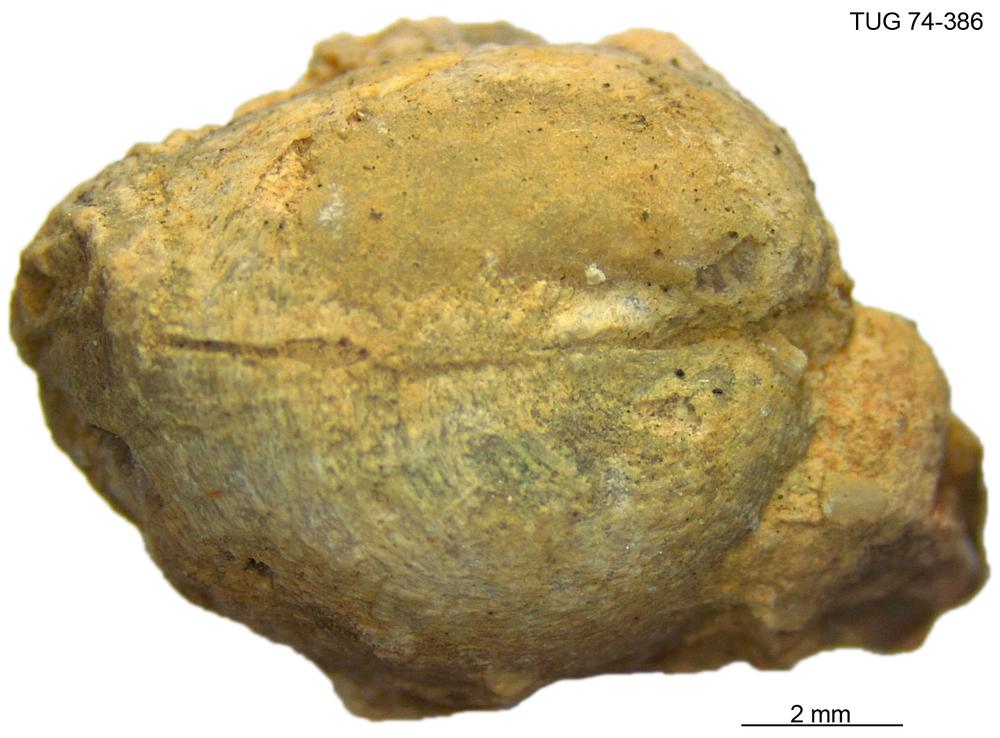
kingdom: Animalia
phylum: Brachiopoda
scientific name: Brachiopoda
